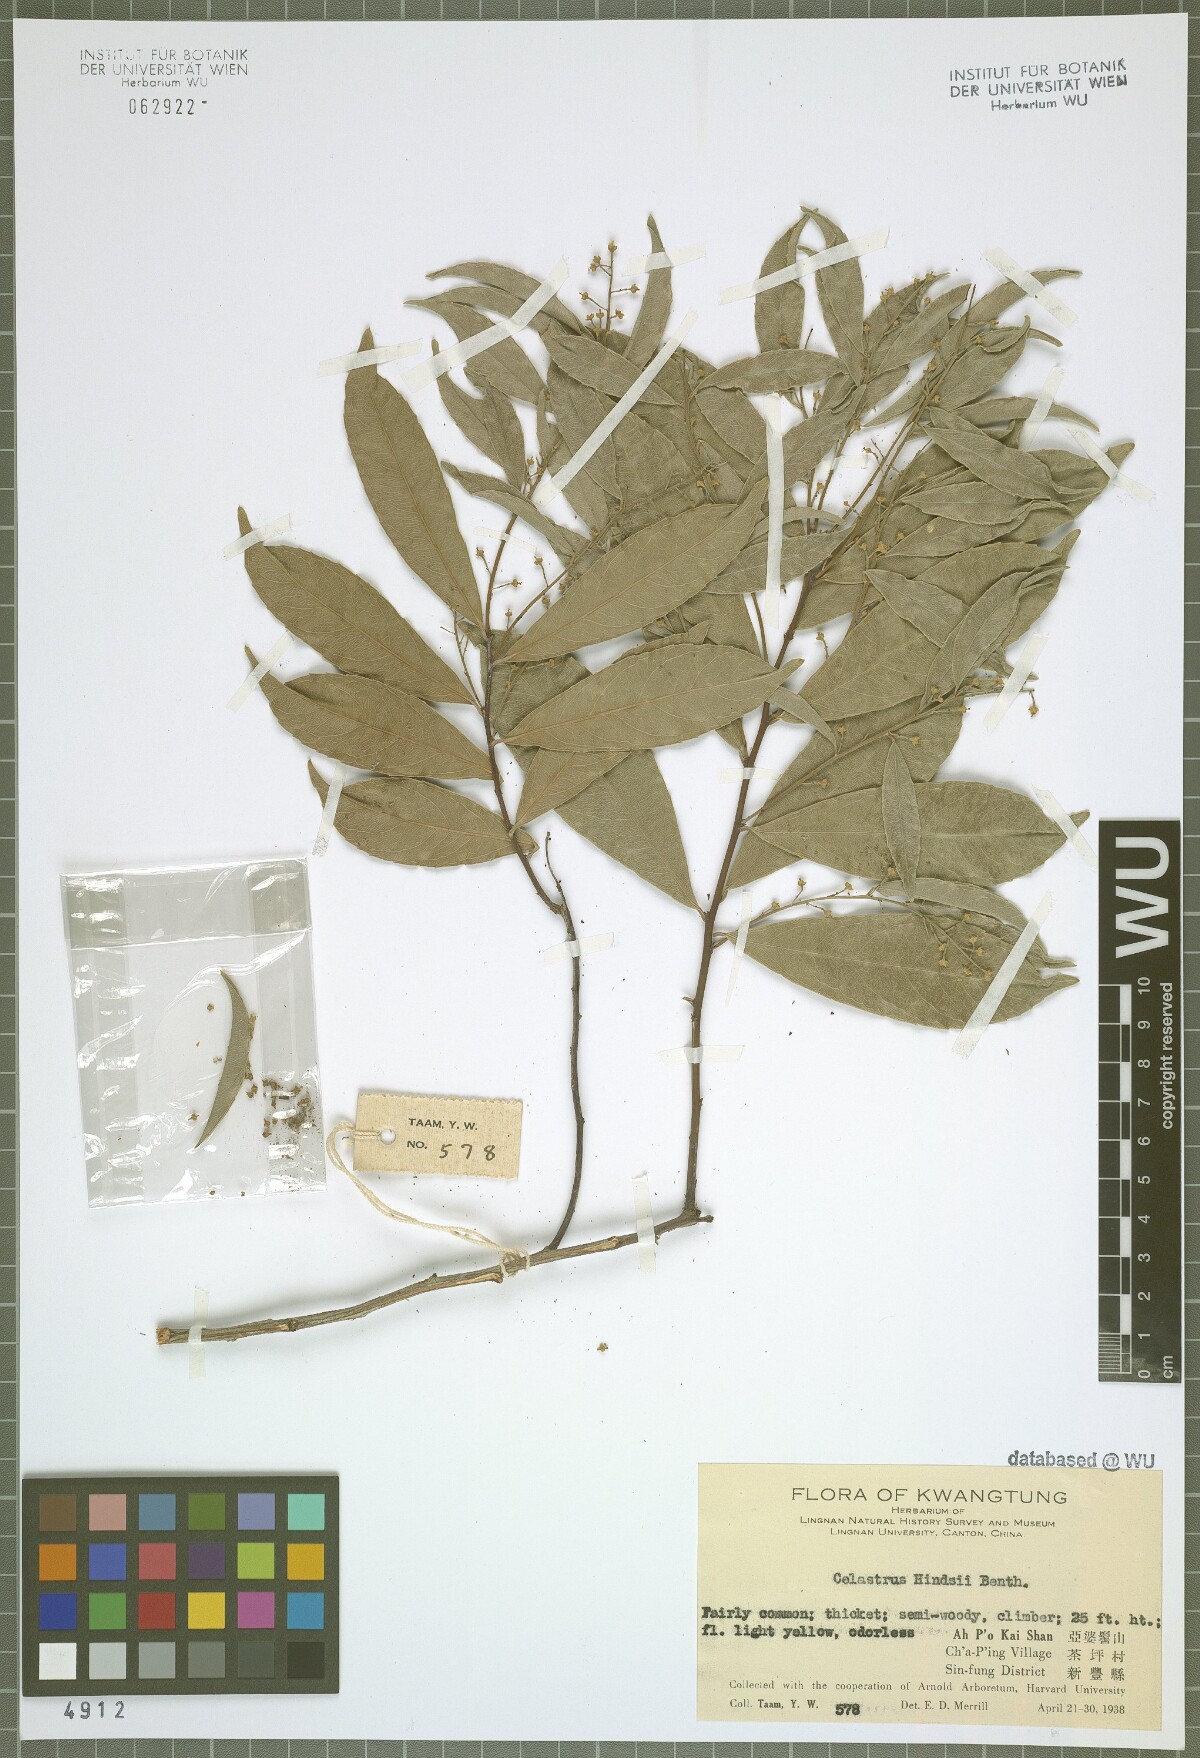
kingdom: Plantae
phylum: Tracheophyta
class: Magnoliopsida
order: Celastrales
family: Celastraceae
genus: Celastrus
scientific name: Celastrus hindsii
